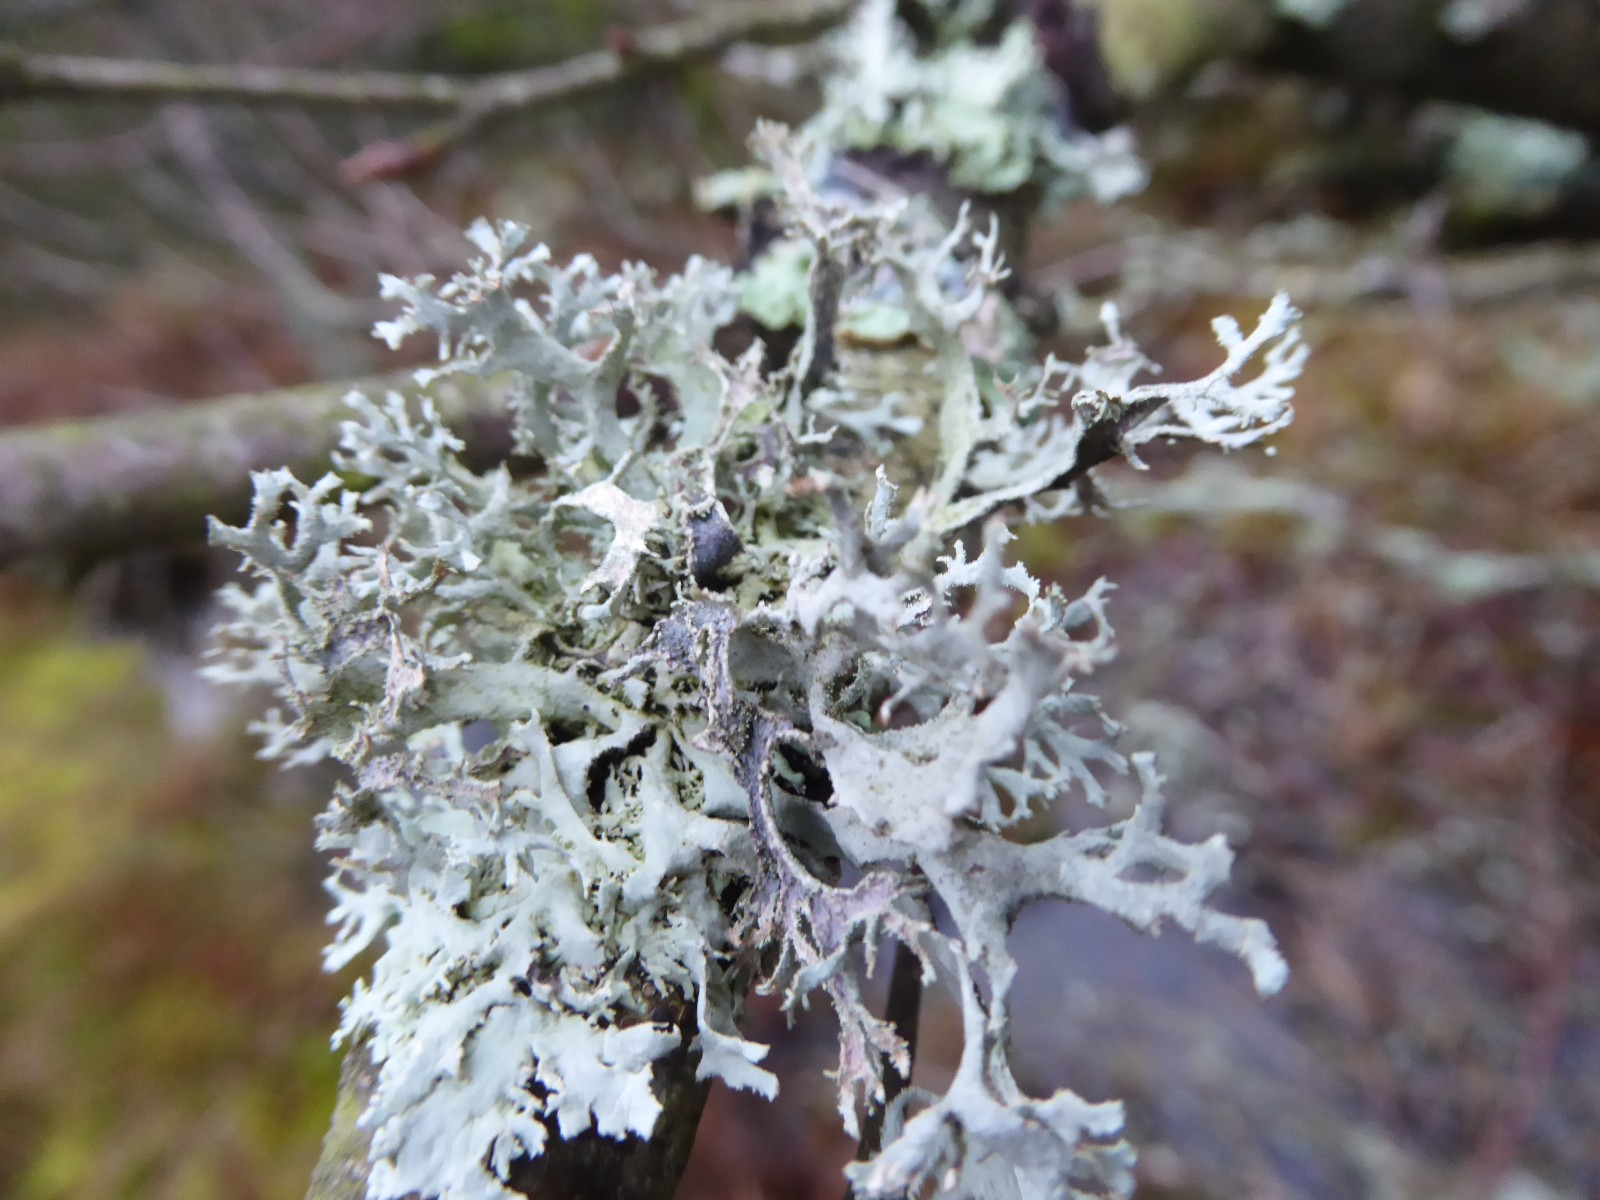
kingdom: Fungi
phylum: Ascomycota
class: Lecanoromycetes
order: Lecanorales
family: Parmeliaceae
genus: Pseudevernia
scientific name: Pseudevernia furfuracea
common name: grå fyrrelav
